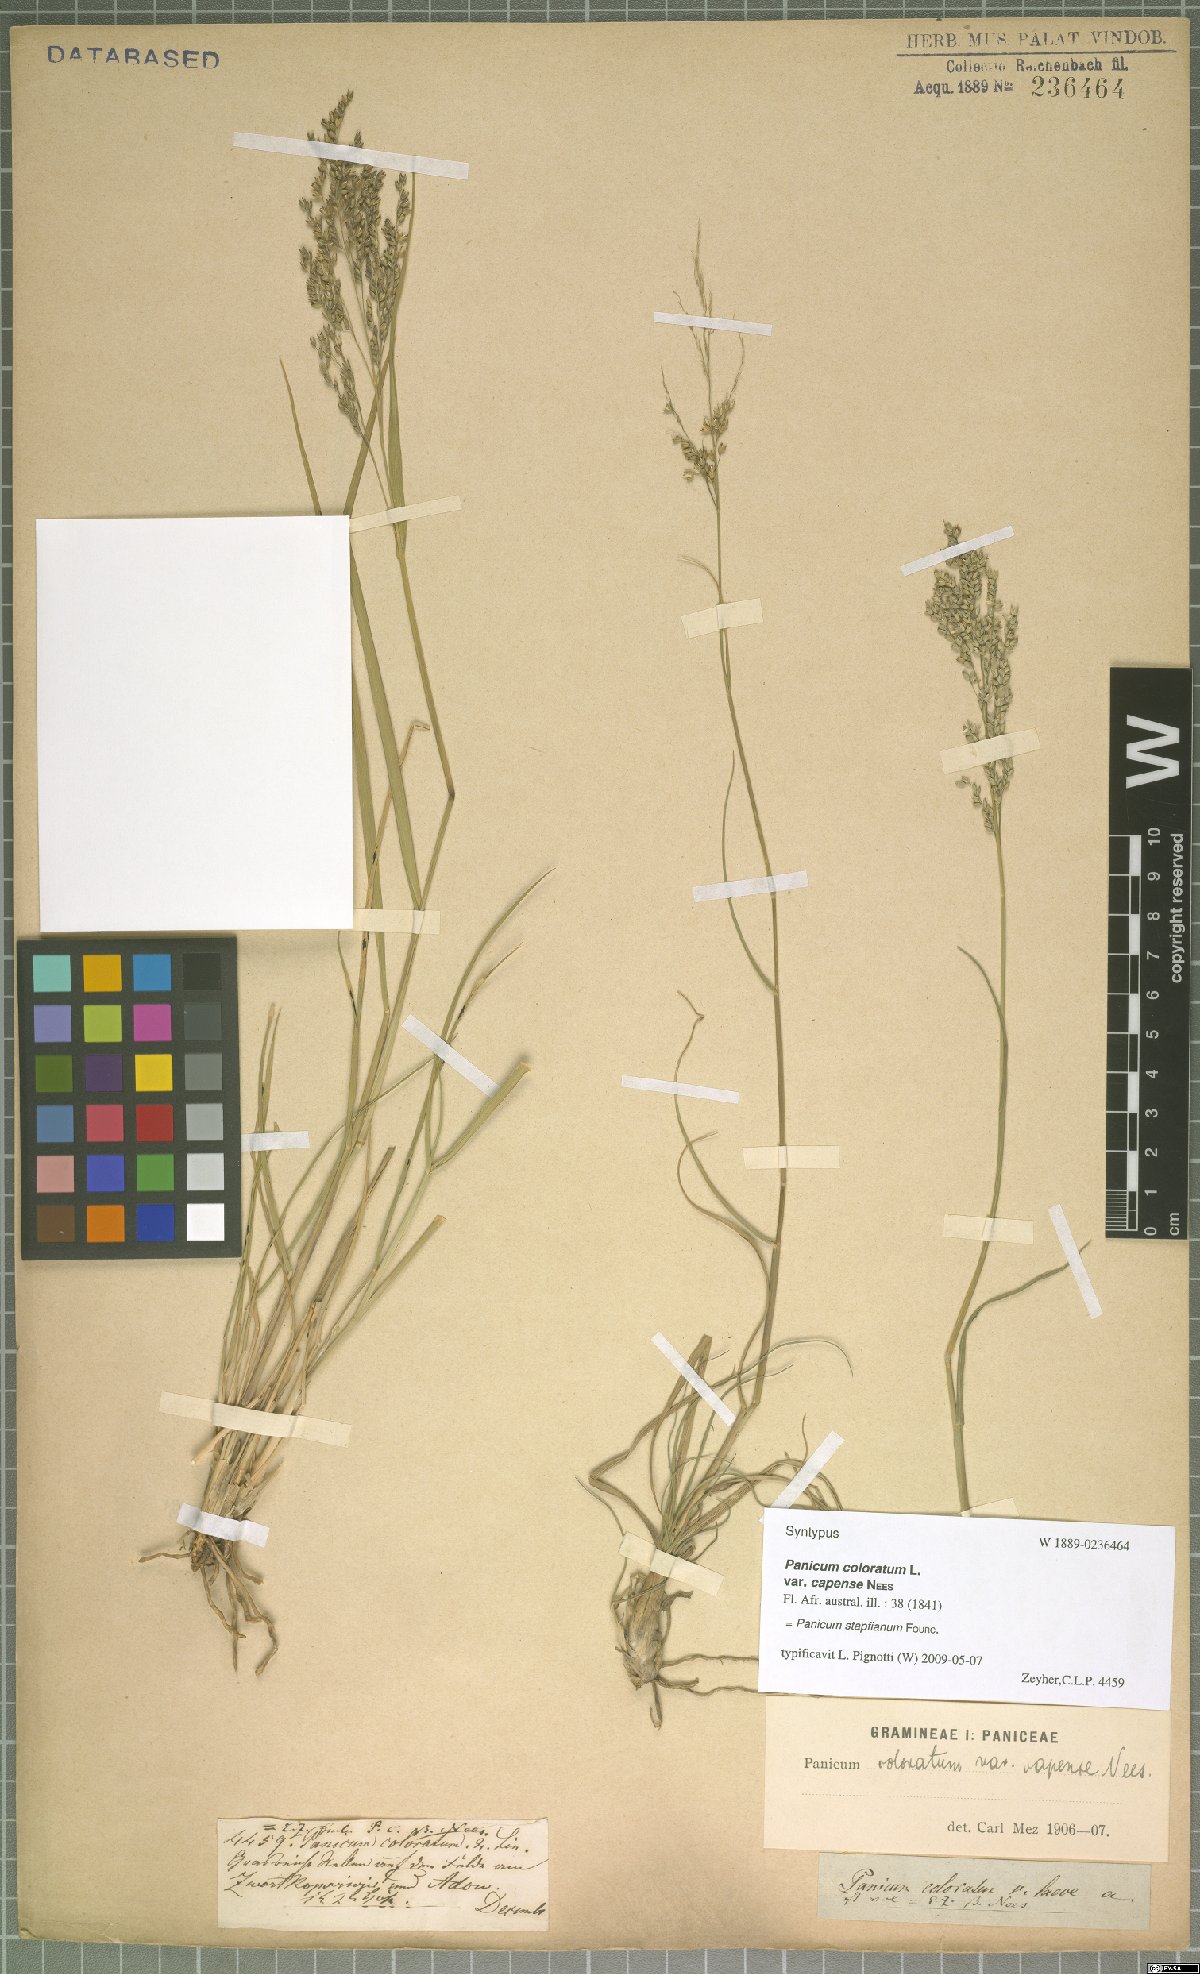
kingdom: Plantae
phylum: Tracheophyta
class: Liliopsida
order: Poales
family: Poaceae
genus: Panicum
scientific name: Panicum stapfianum
